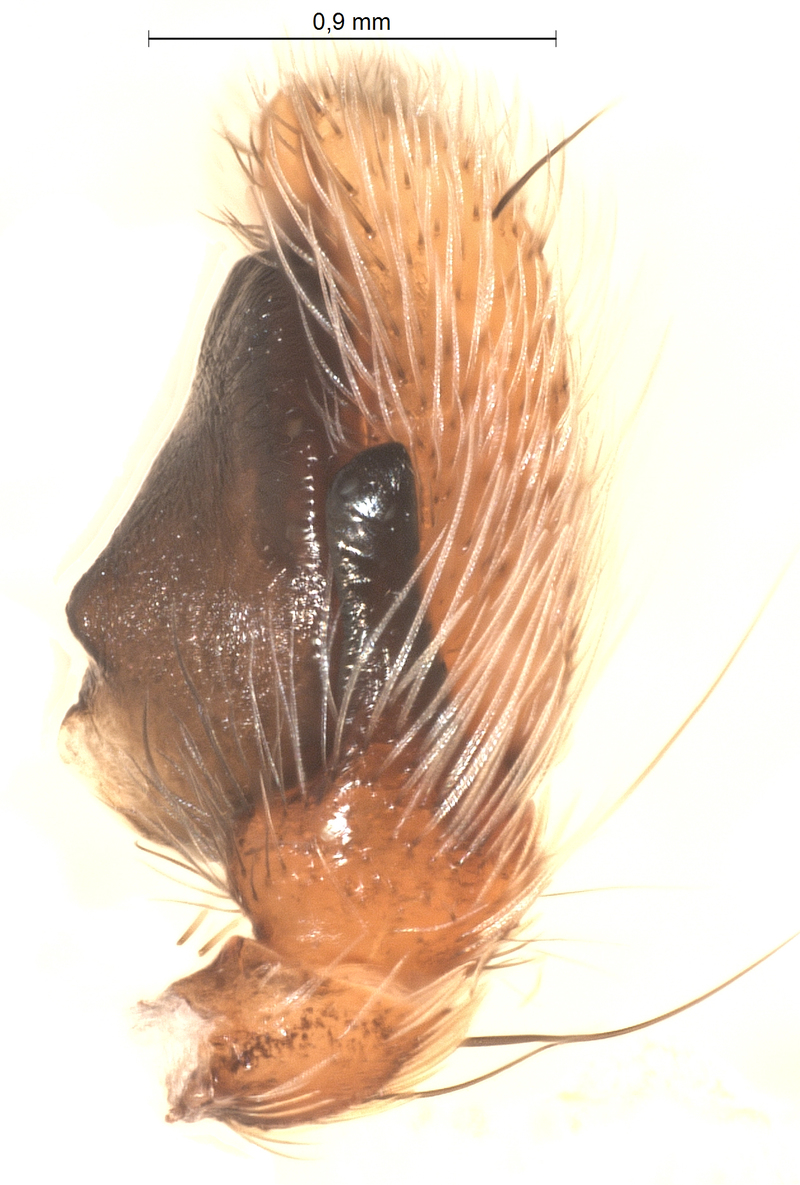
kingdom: Animalia
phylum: Arthropoda
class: Arachnida
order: Araneae
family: Salticidae
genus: Evarcha
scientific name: Evarcha falcata
